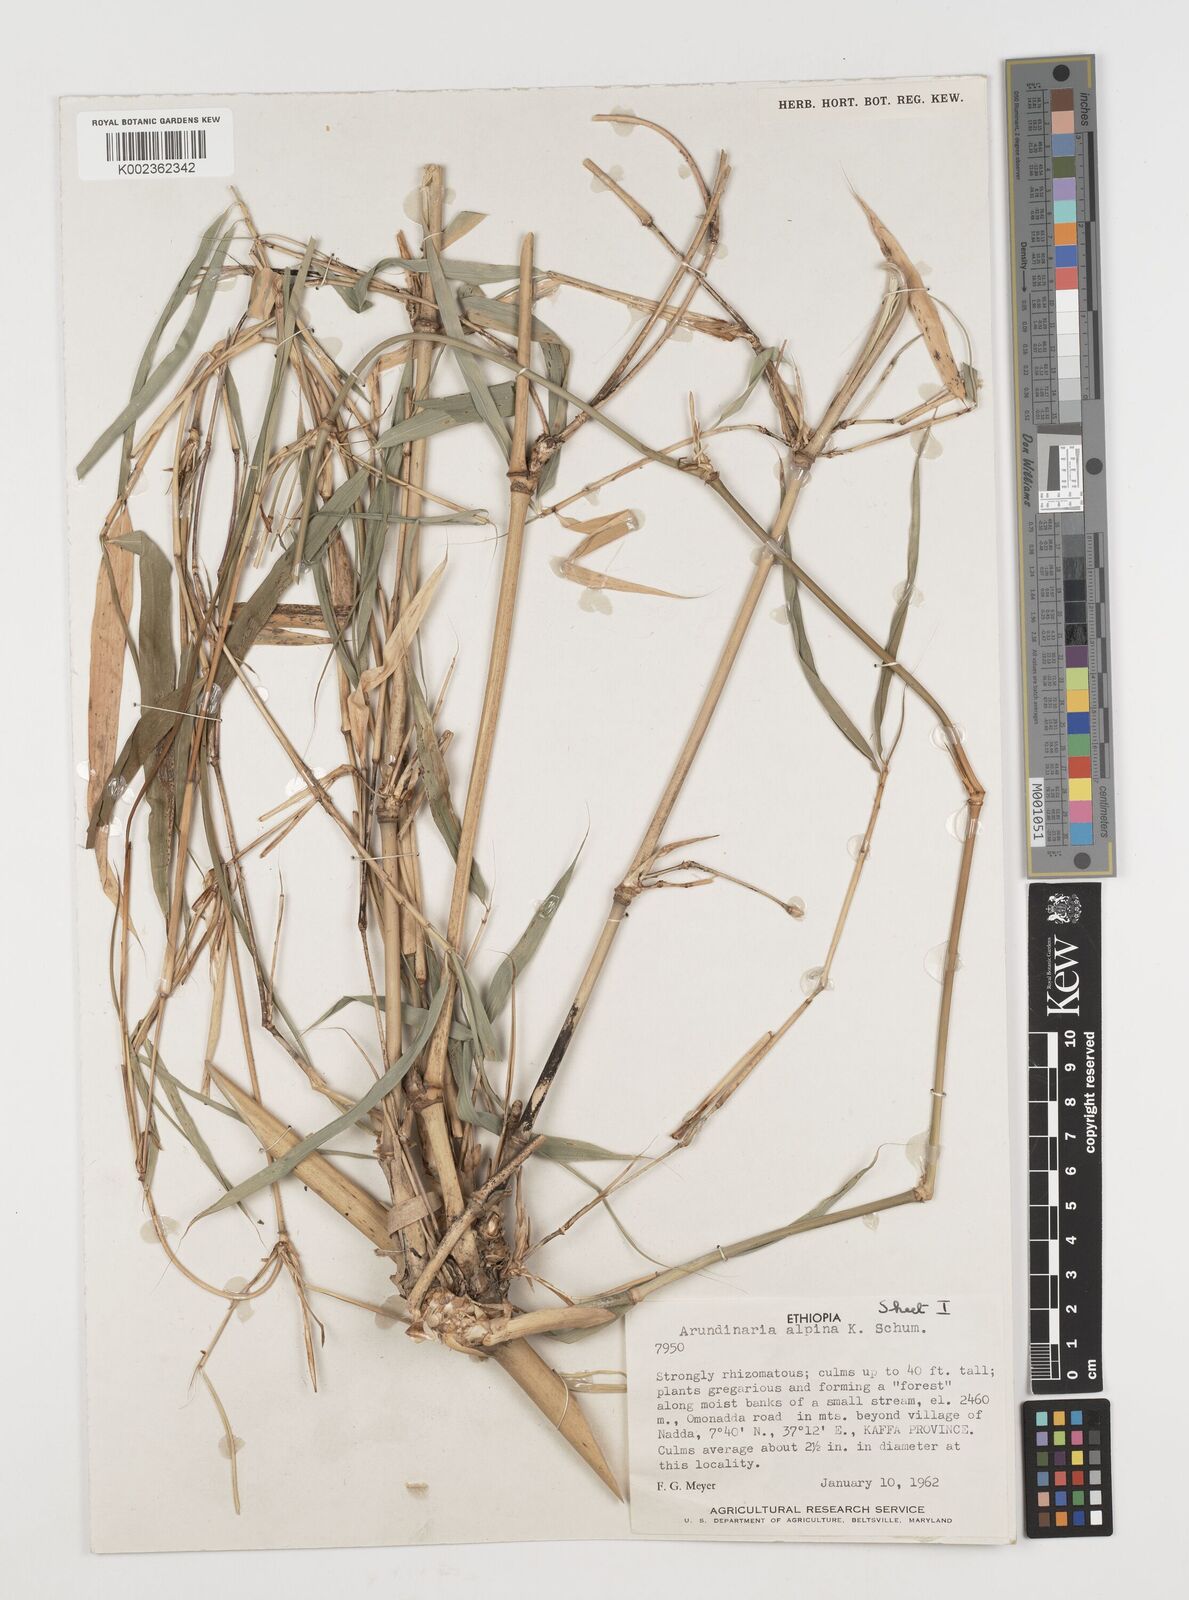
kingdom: Plantae
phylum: Tracheophyta
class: Liliopsida
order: Poales
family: Poaceae
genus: Oldeania
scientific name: Oldeania alpina
